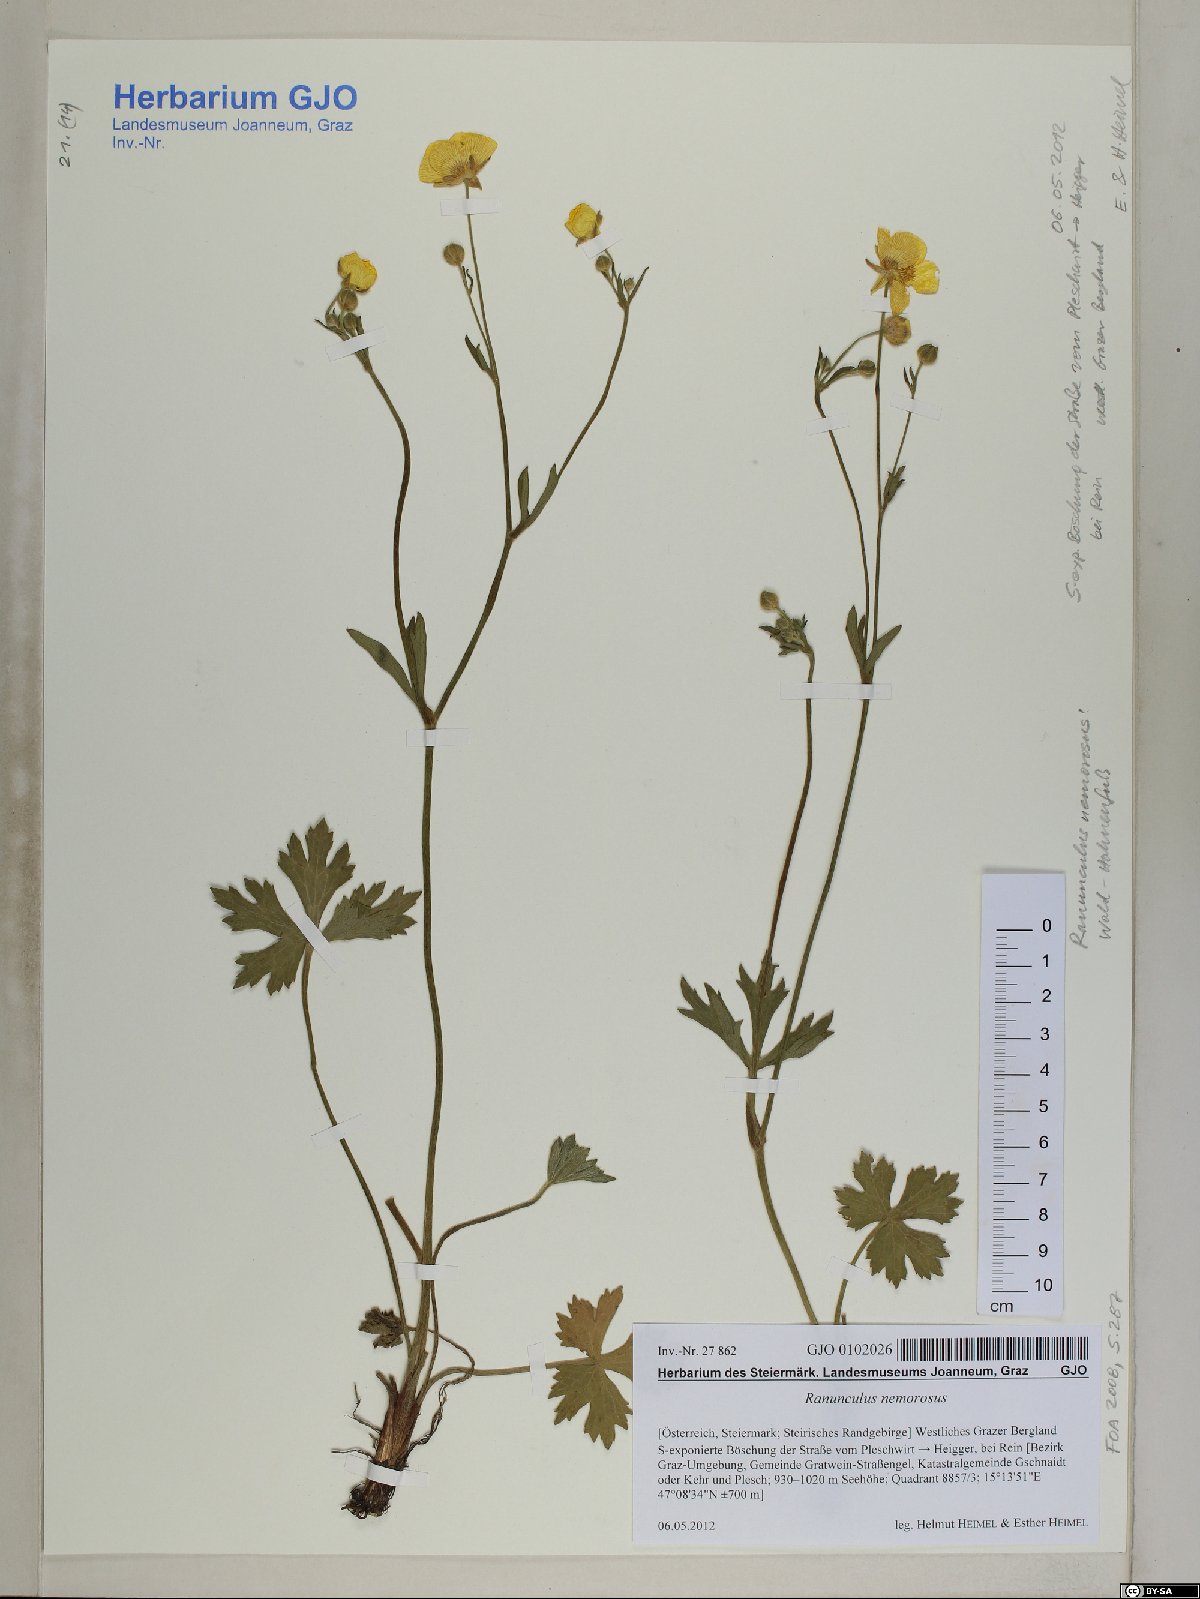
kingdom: Plantae
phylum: Tracheophyta
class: Magnoliopsida
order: Ranunculales
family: Ranunculaceae
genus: Ranunculus
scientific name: Ranunculus polyanthemos
